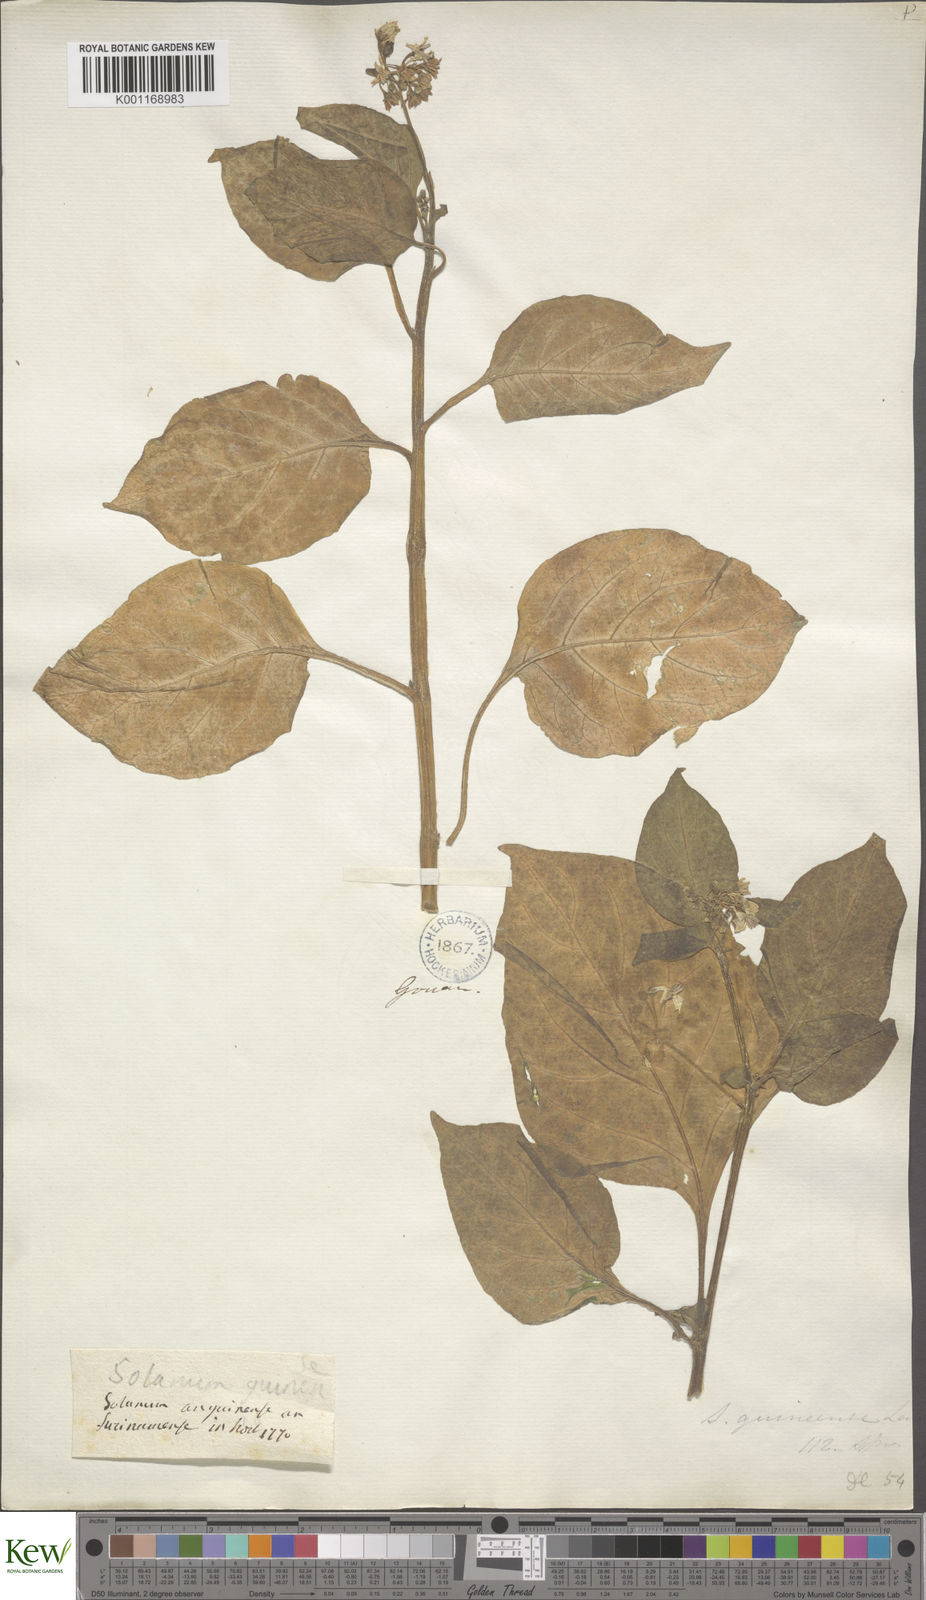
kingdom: Plantae
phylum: Tracheophyta
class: Magnoliopsida
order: Solanales
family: Solanaceae
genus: Solanum
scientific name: Solanum guineense
